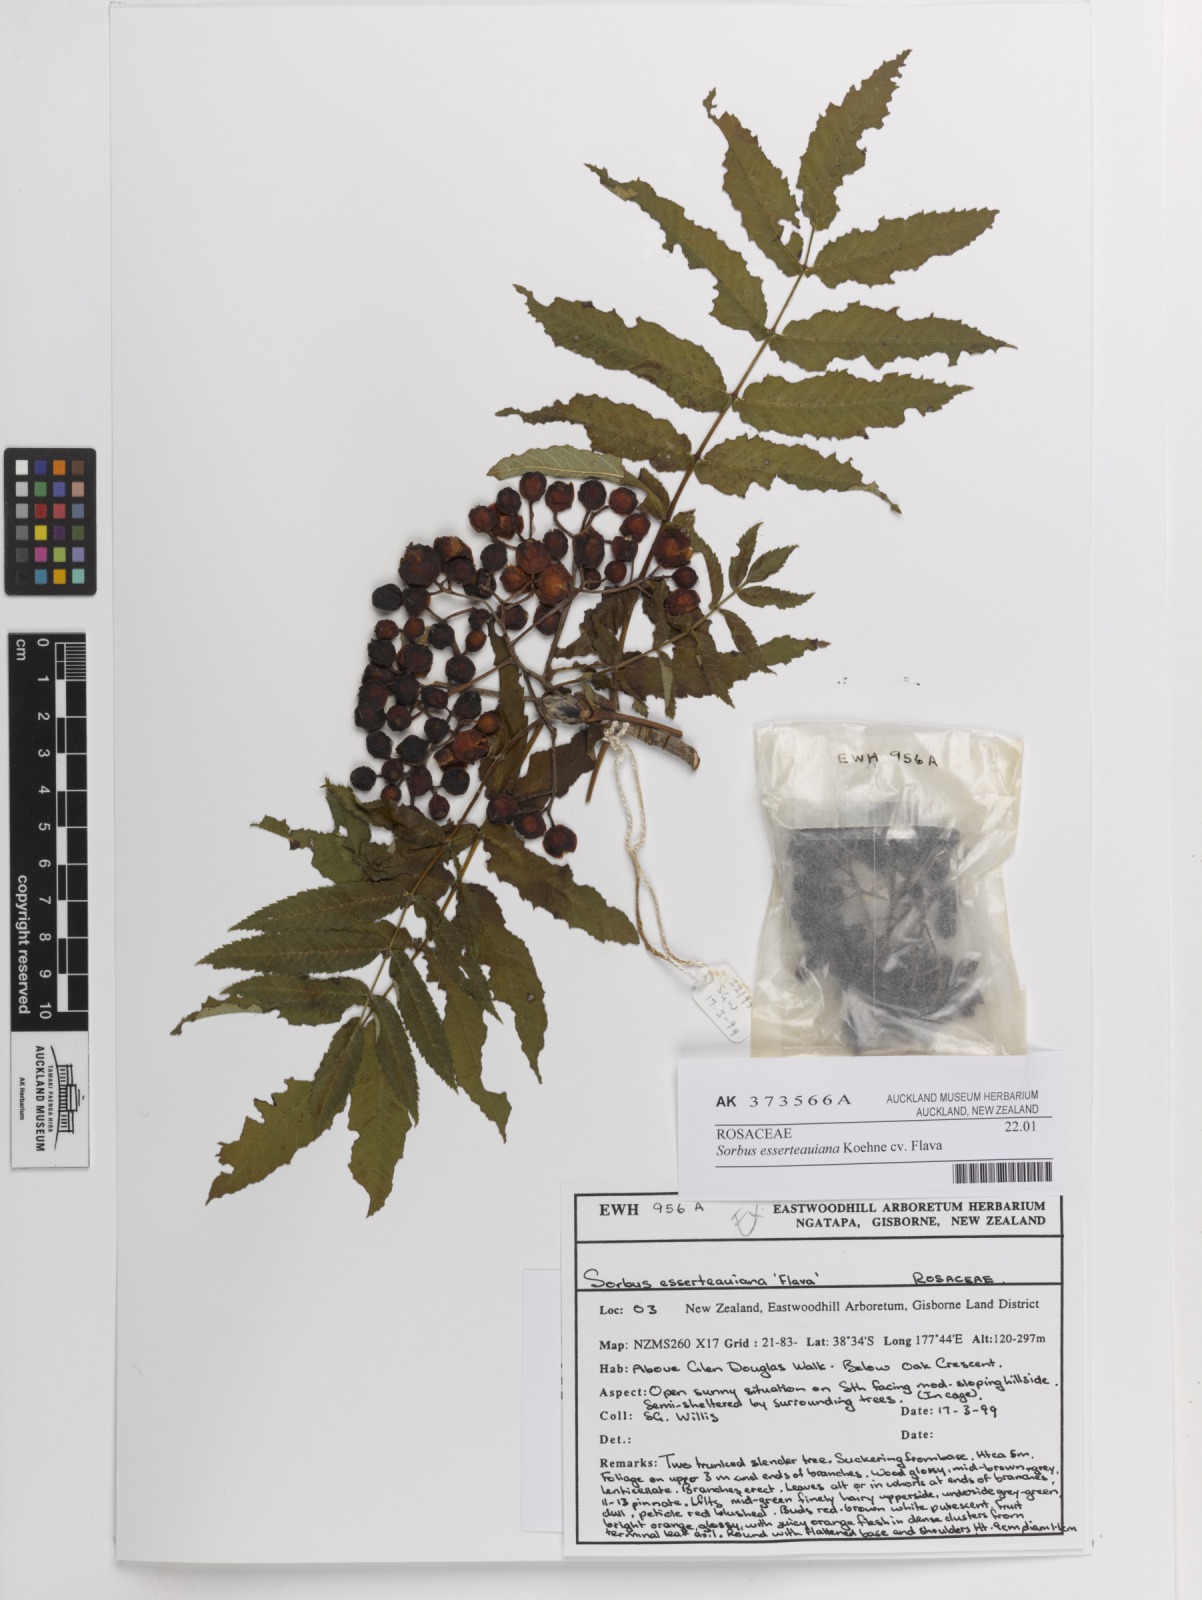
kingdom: Plantae
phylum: Tracheophyta
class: Magnoliopsida
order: Rosales
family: Rosaceae
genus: Sorbus
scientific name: Sorbus esserteauiana
